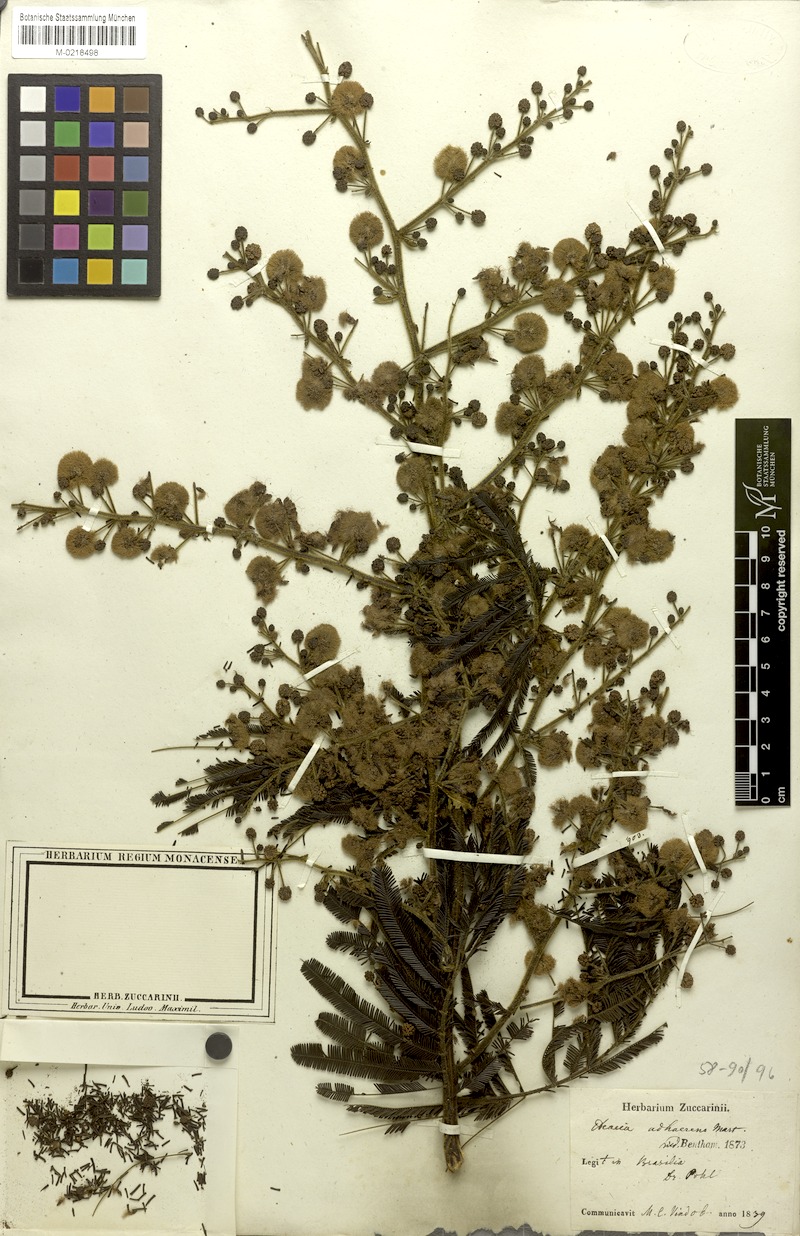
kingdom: Plantae
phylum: Tracheophyta
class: Magnoliopsida
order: Fabales
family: Fabaceae
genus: Senegalia
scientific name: Senegalia martiusiana
